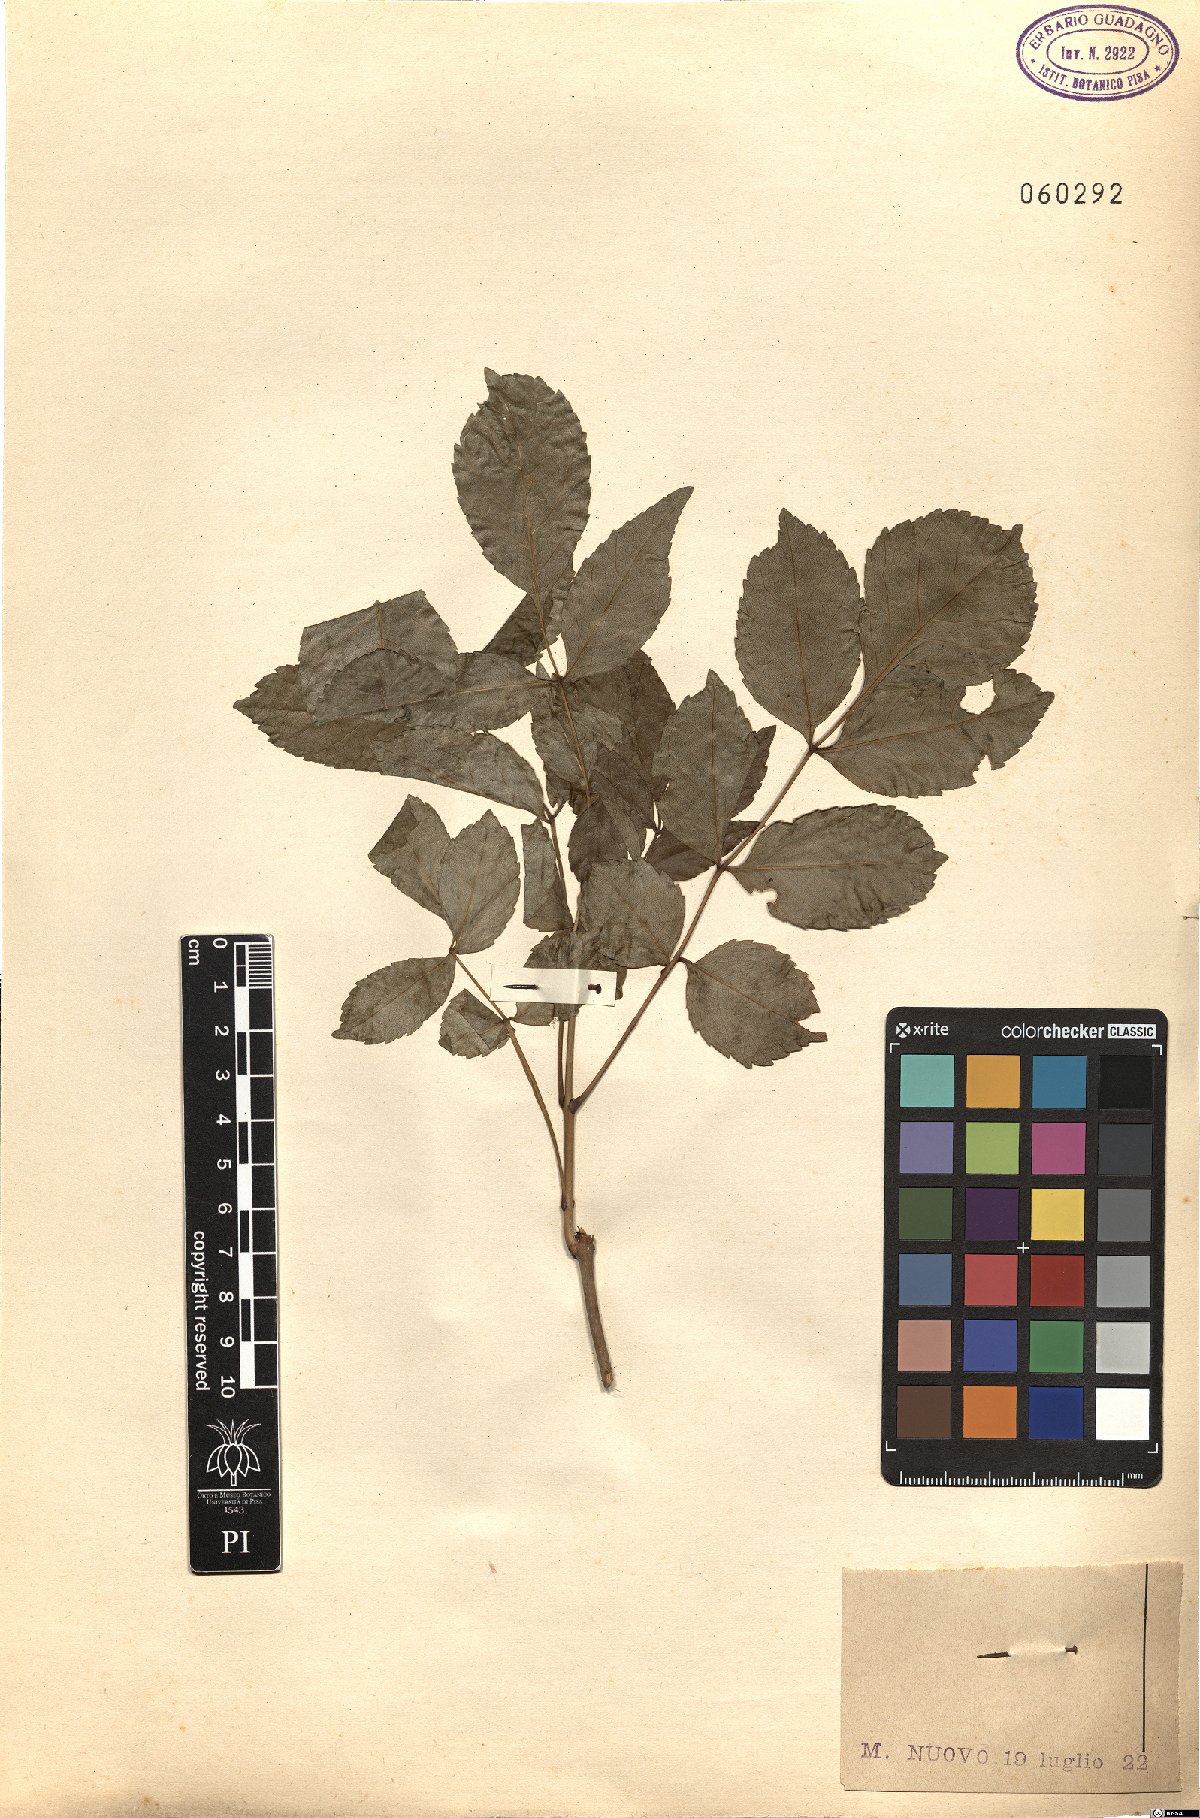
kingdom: Plantae
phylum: Tracheophyta
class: Magnoliopsida
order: Lamiales
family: Oleaceae
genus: Fraxinus
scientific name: Fraxinus ornus
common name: Manna ash
